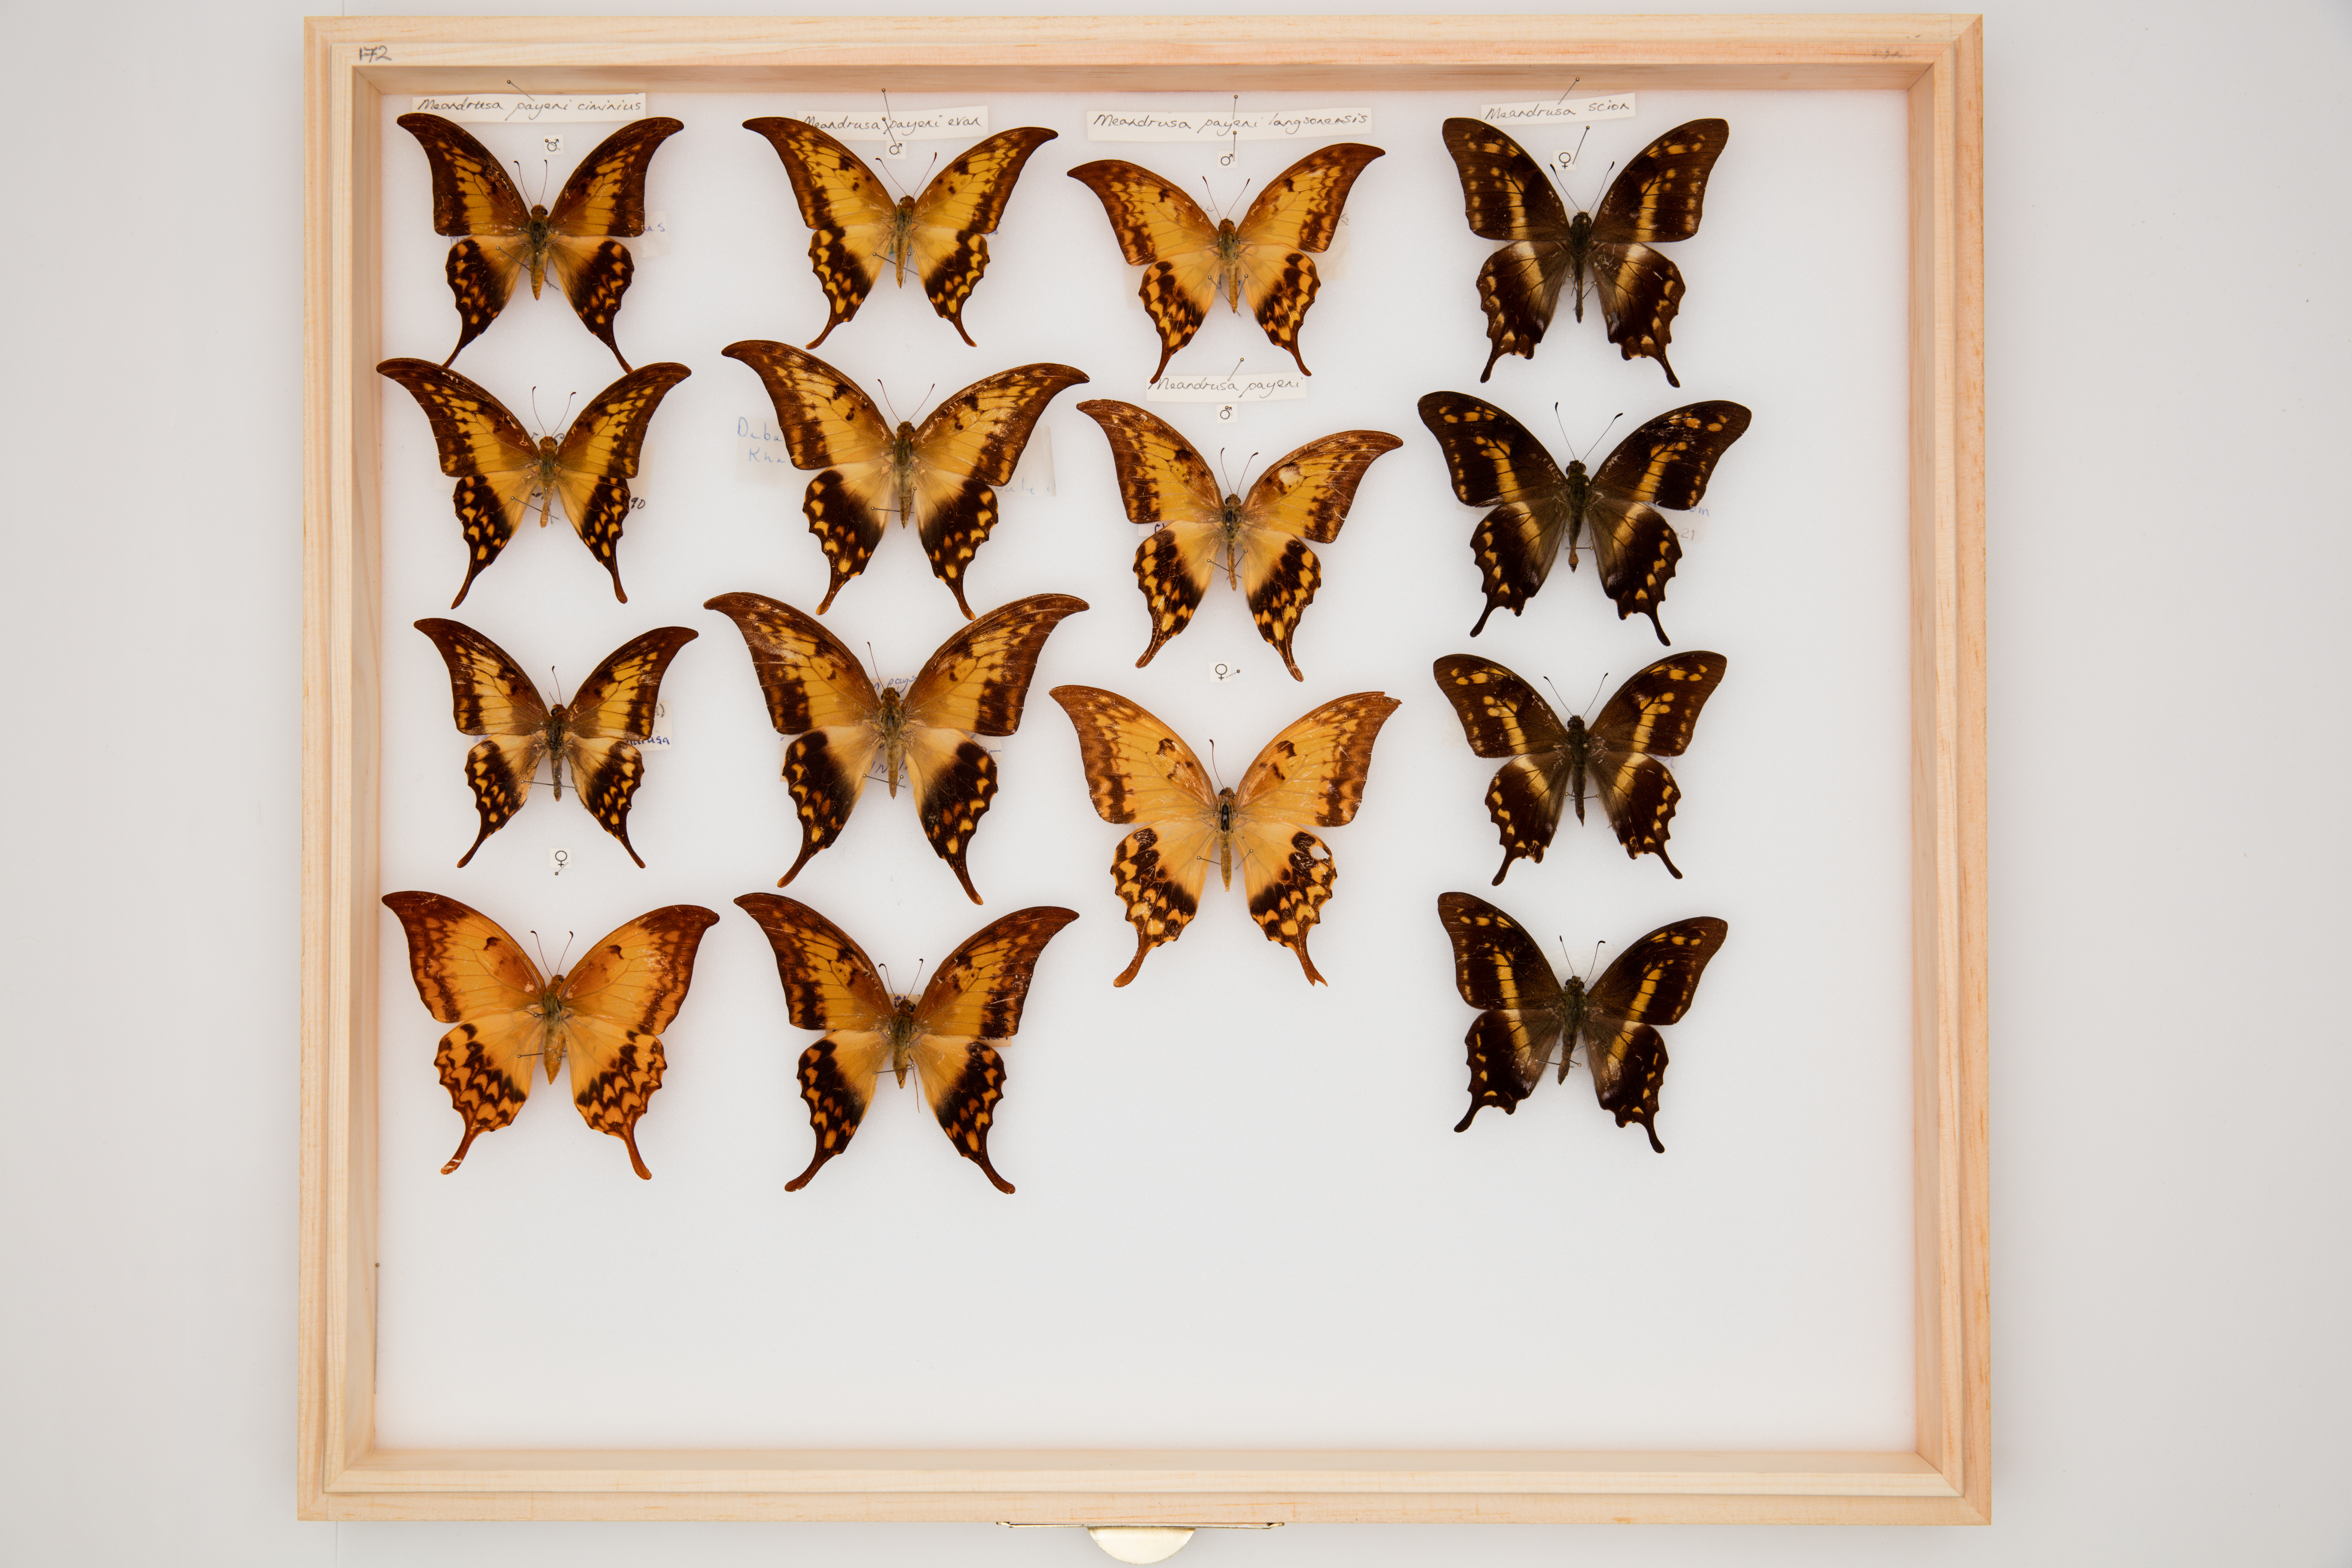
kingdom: Animalia
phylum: Arthropoda
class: Insecta
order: Lepidoptera
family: Papilionidae
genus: Meandrusa
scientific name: Meandrusa payeni
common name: Outlet sword
